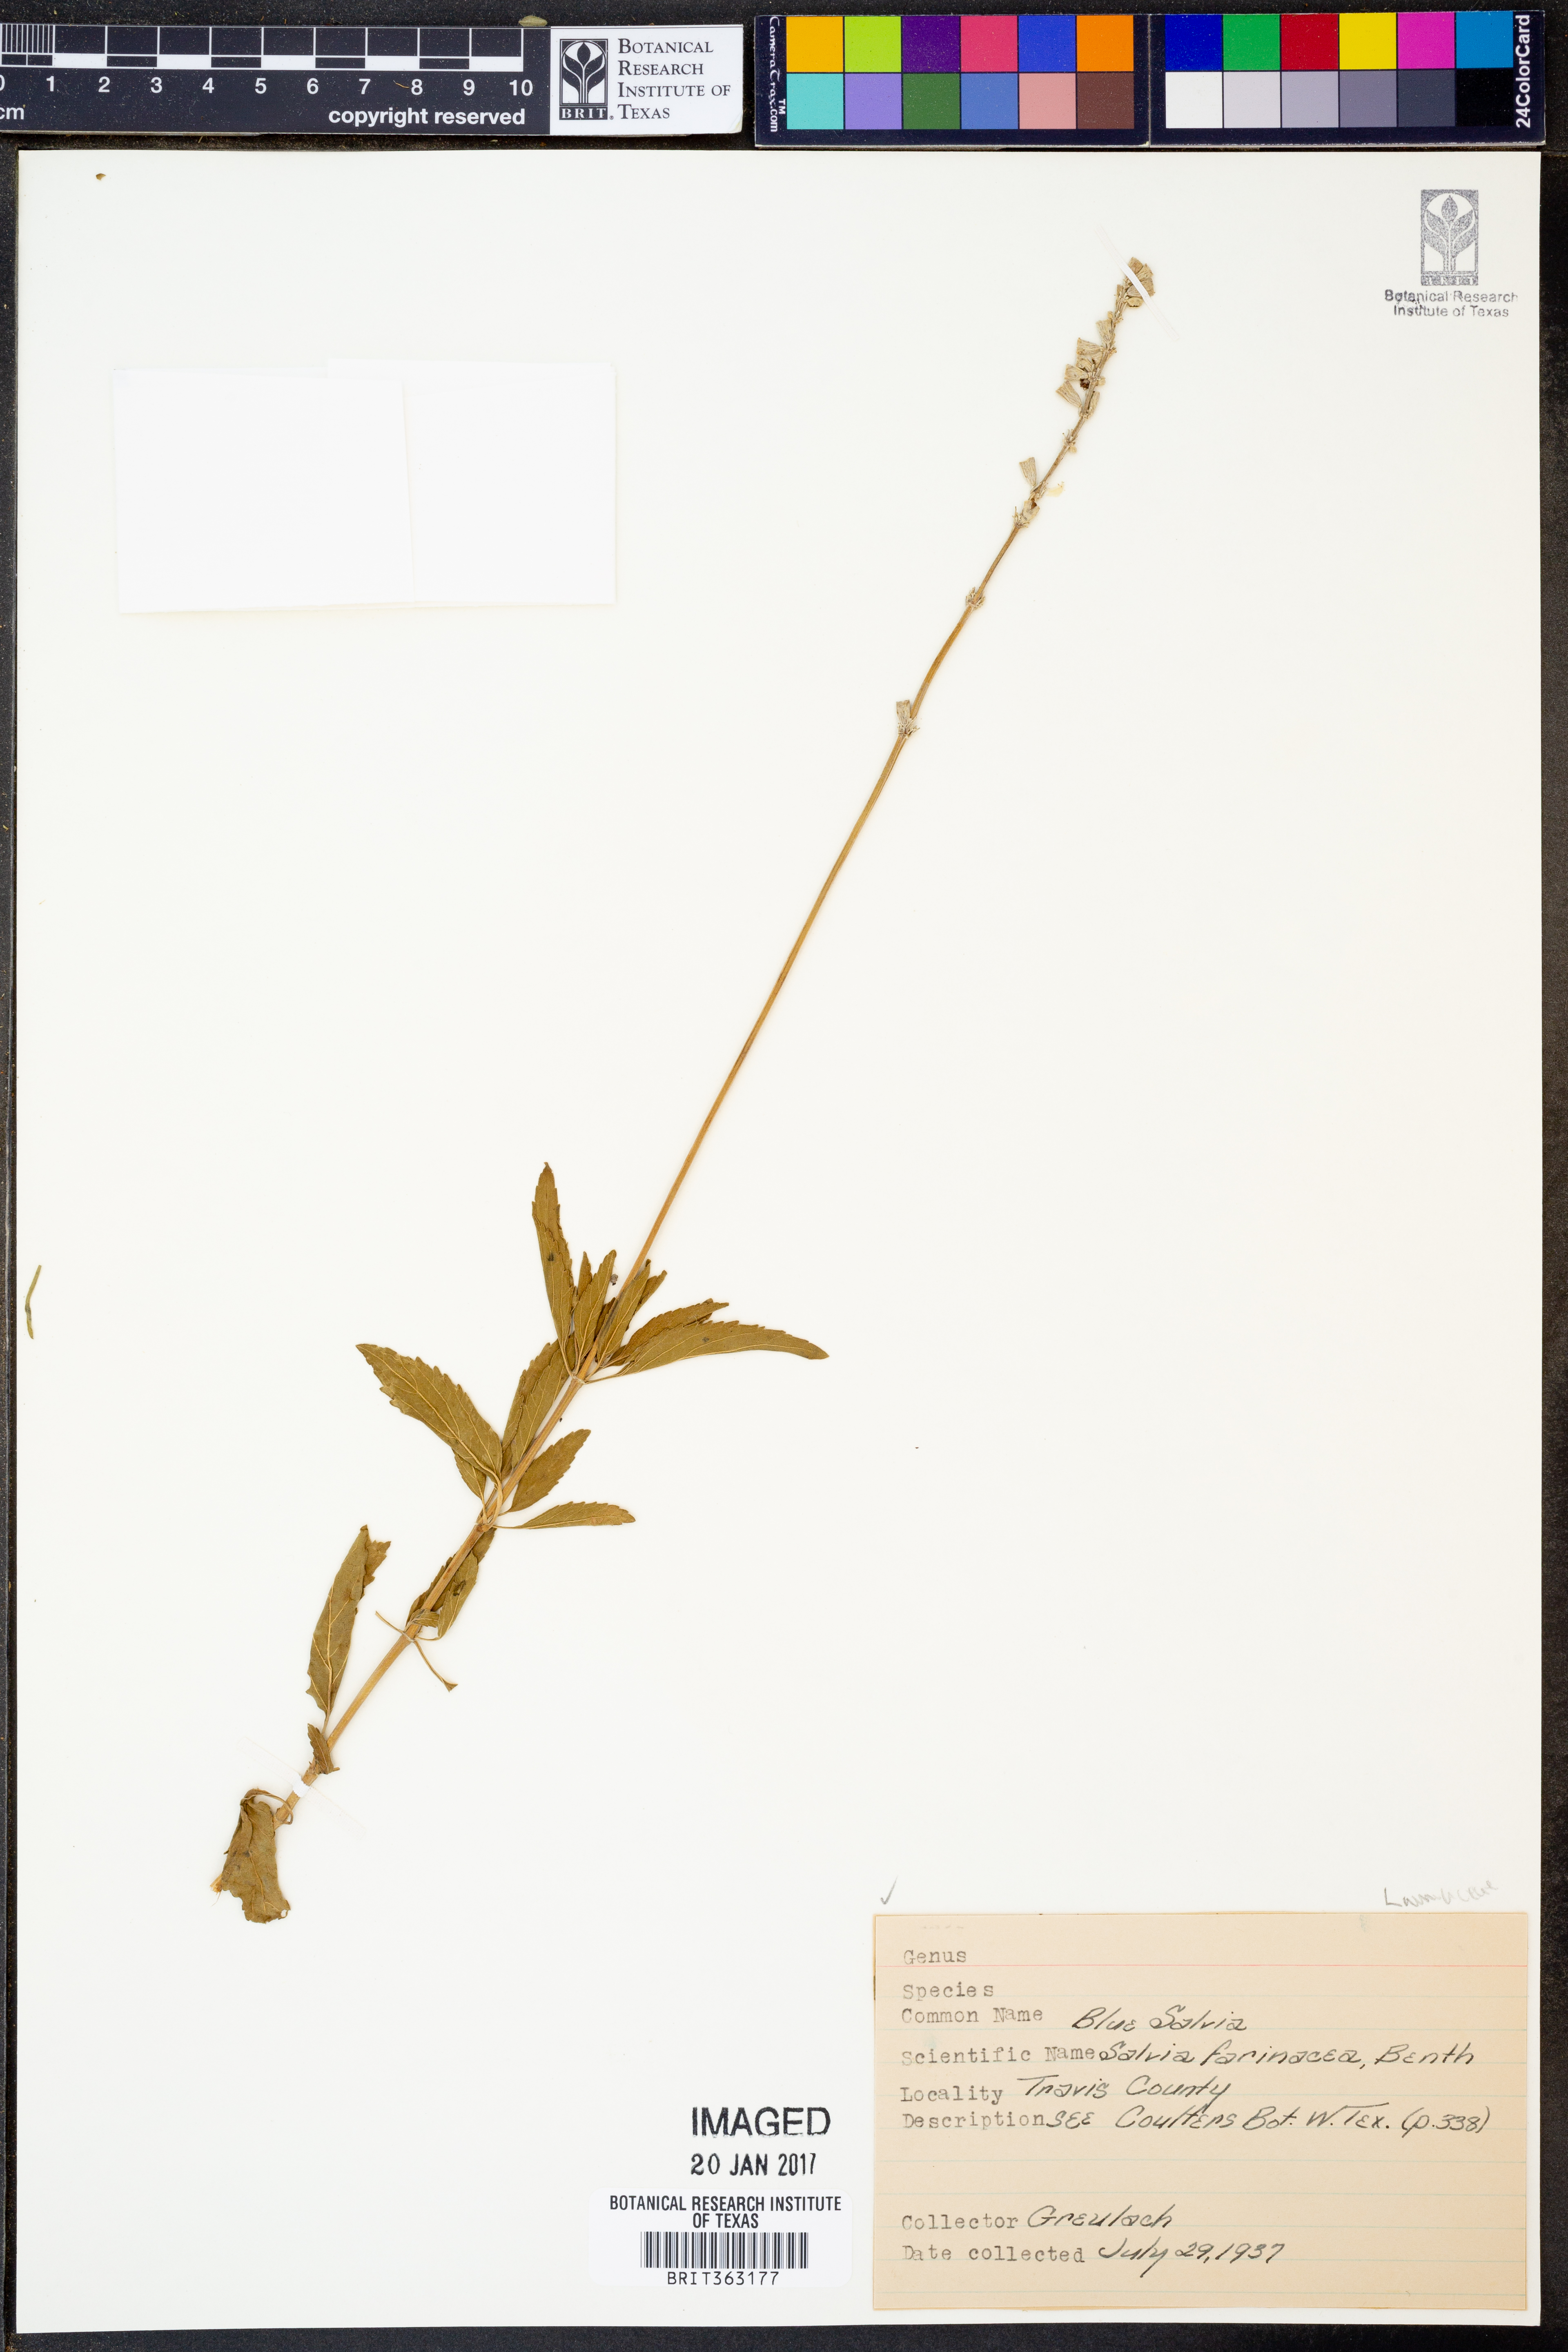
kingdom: Plantae
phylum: Tracheophyta
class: Magnoliopsida
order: Lamiales
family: Lamiaceae
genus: Salvia
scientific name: Salvia farinacea
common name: Mealy sage
